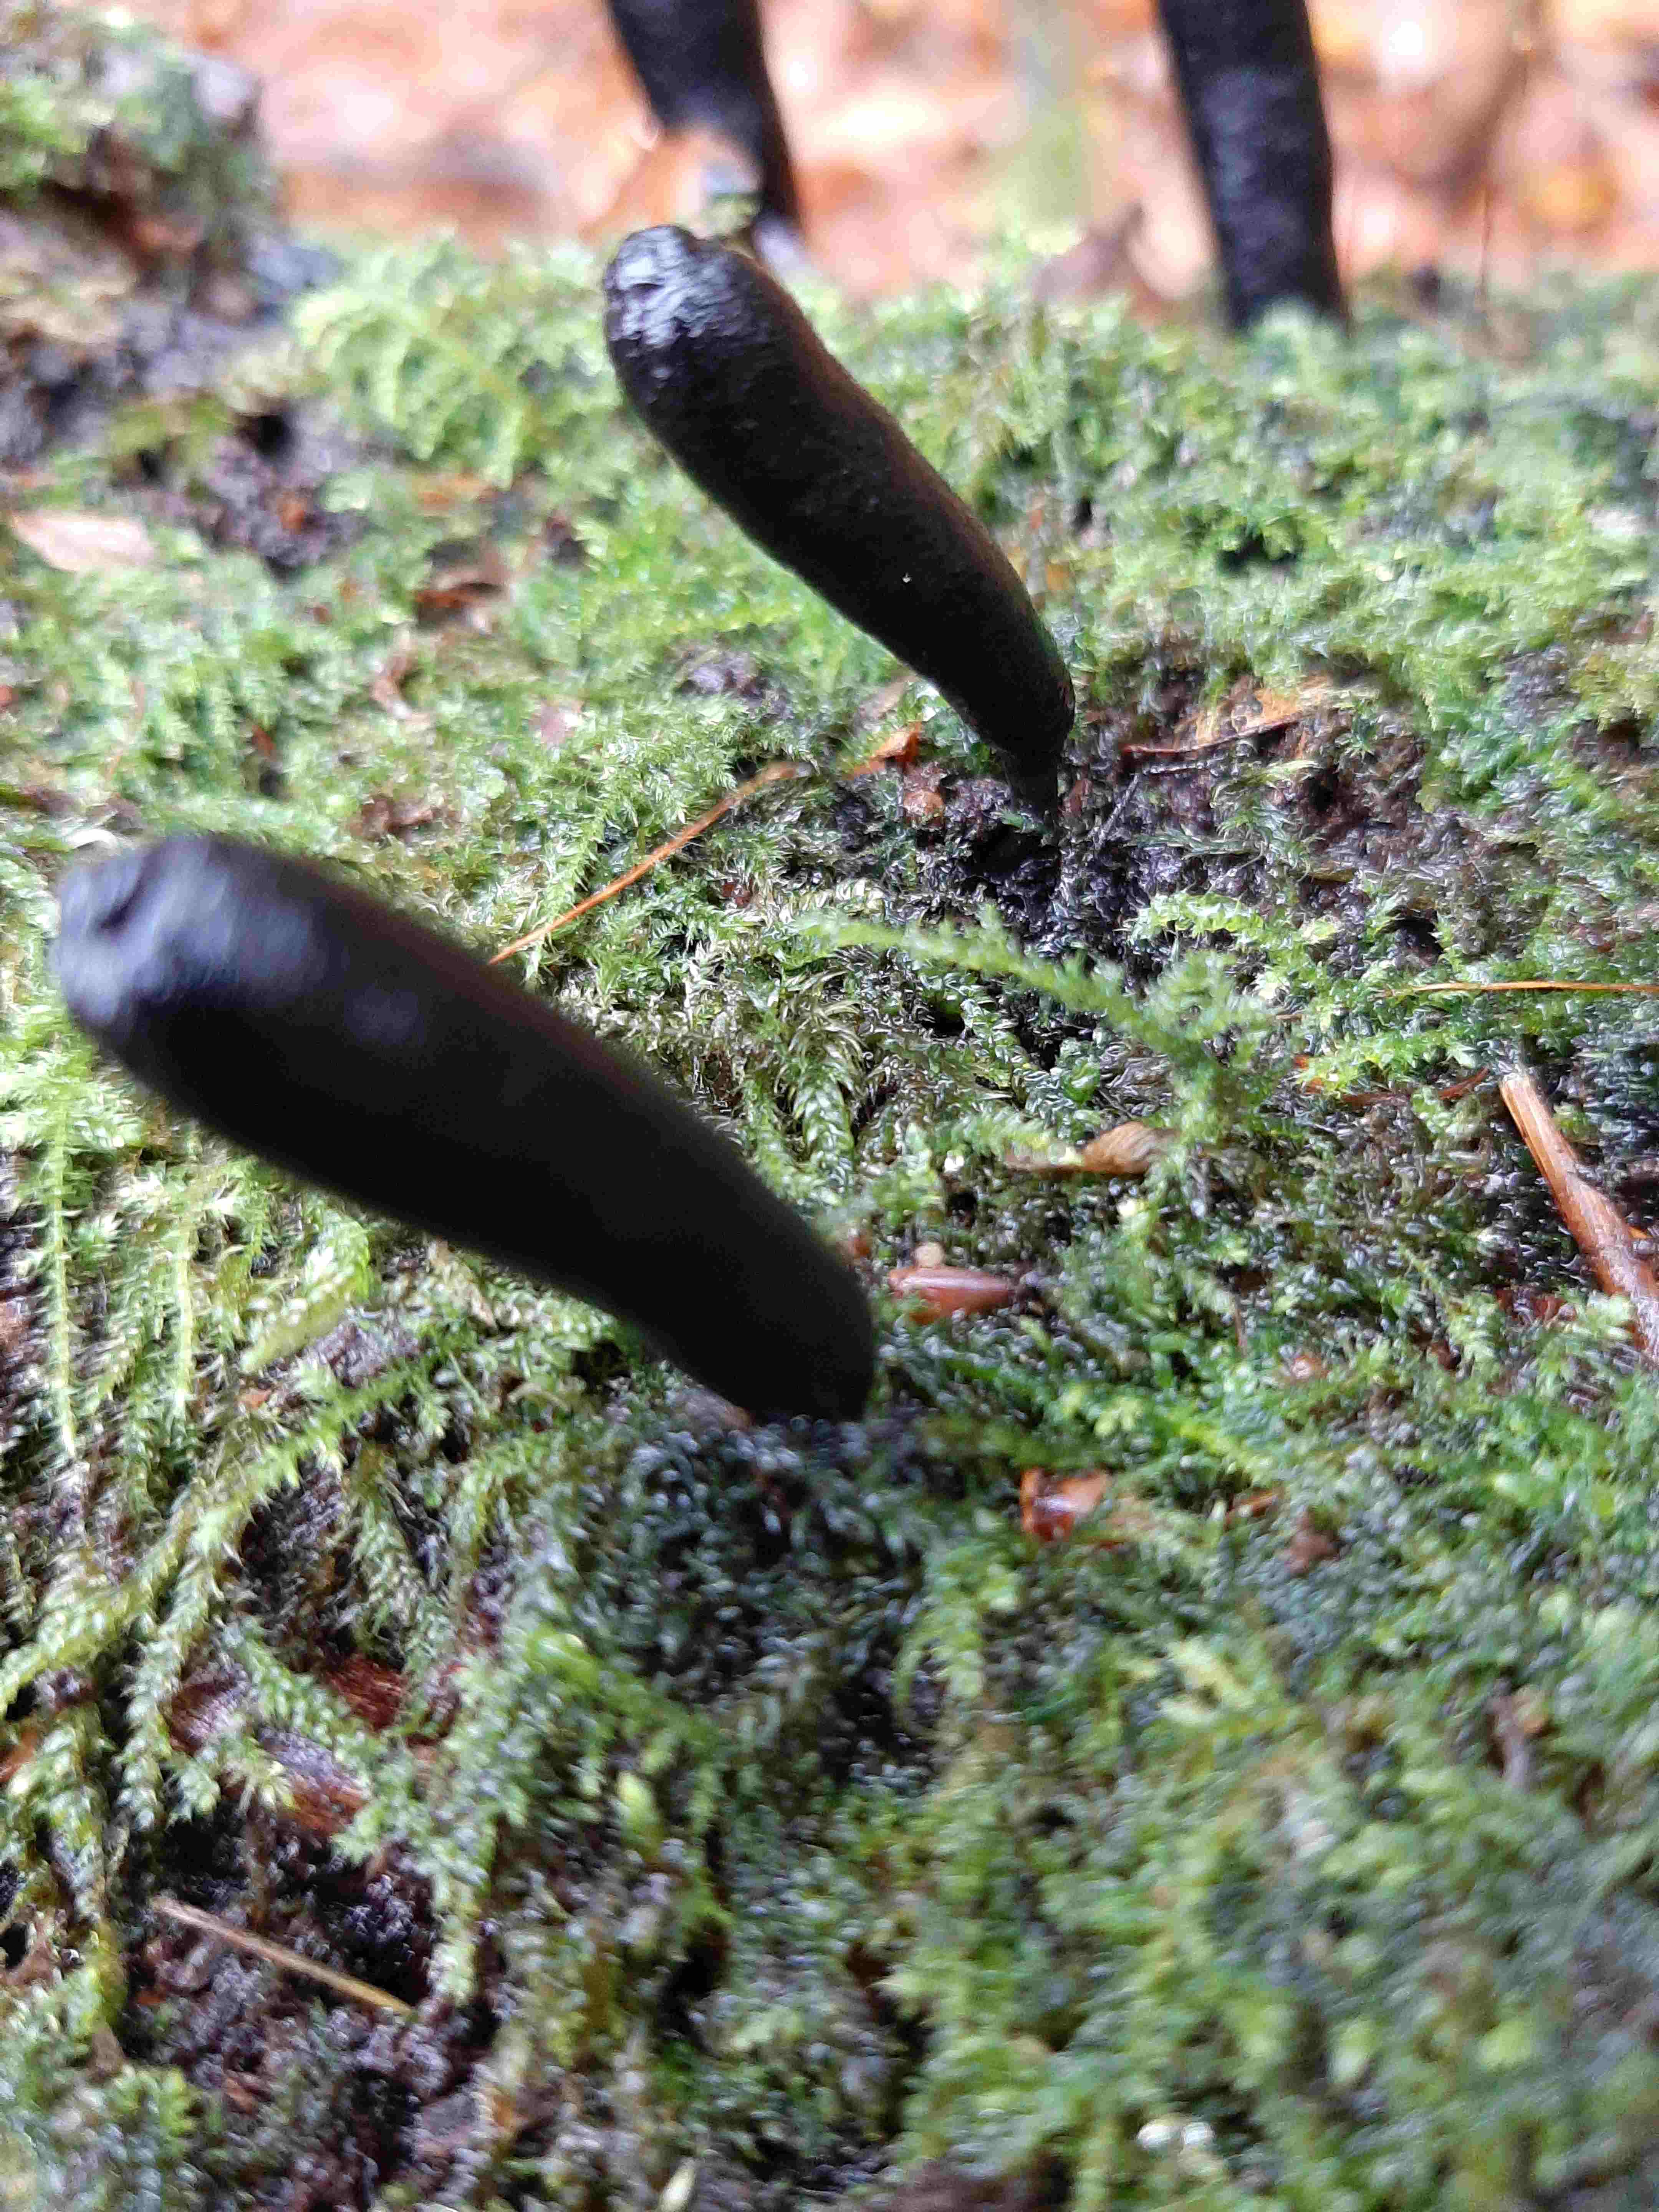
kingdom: Fungi
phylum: Ascomycota
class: Sordariomycetes
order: Xylariales
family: Xylariaceae
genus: Xylaria
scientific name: Xylaria longipes
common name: slank stødsvamp
